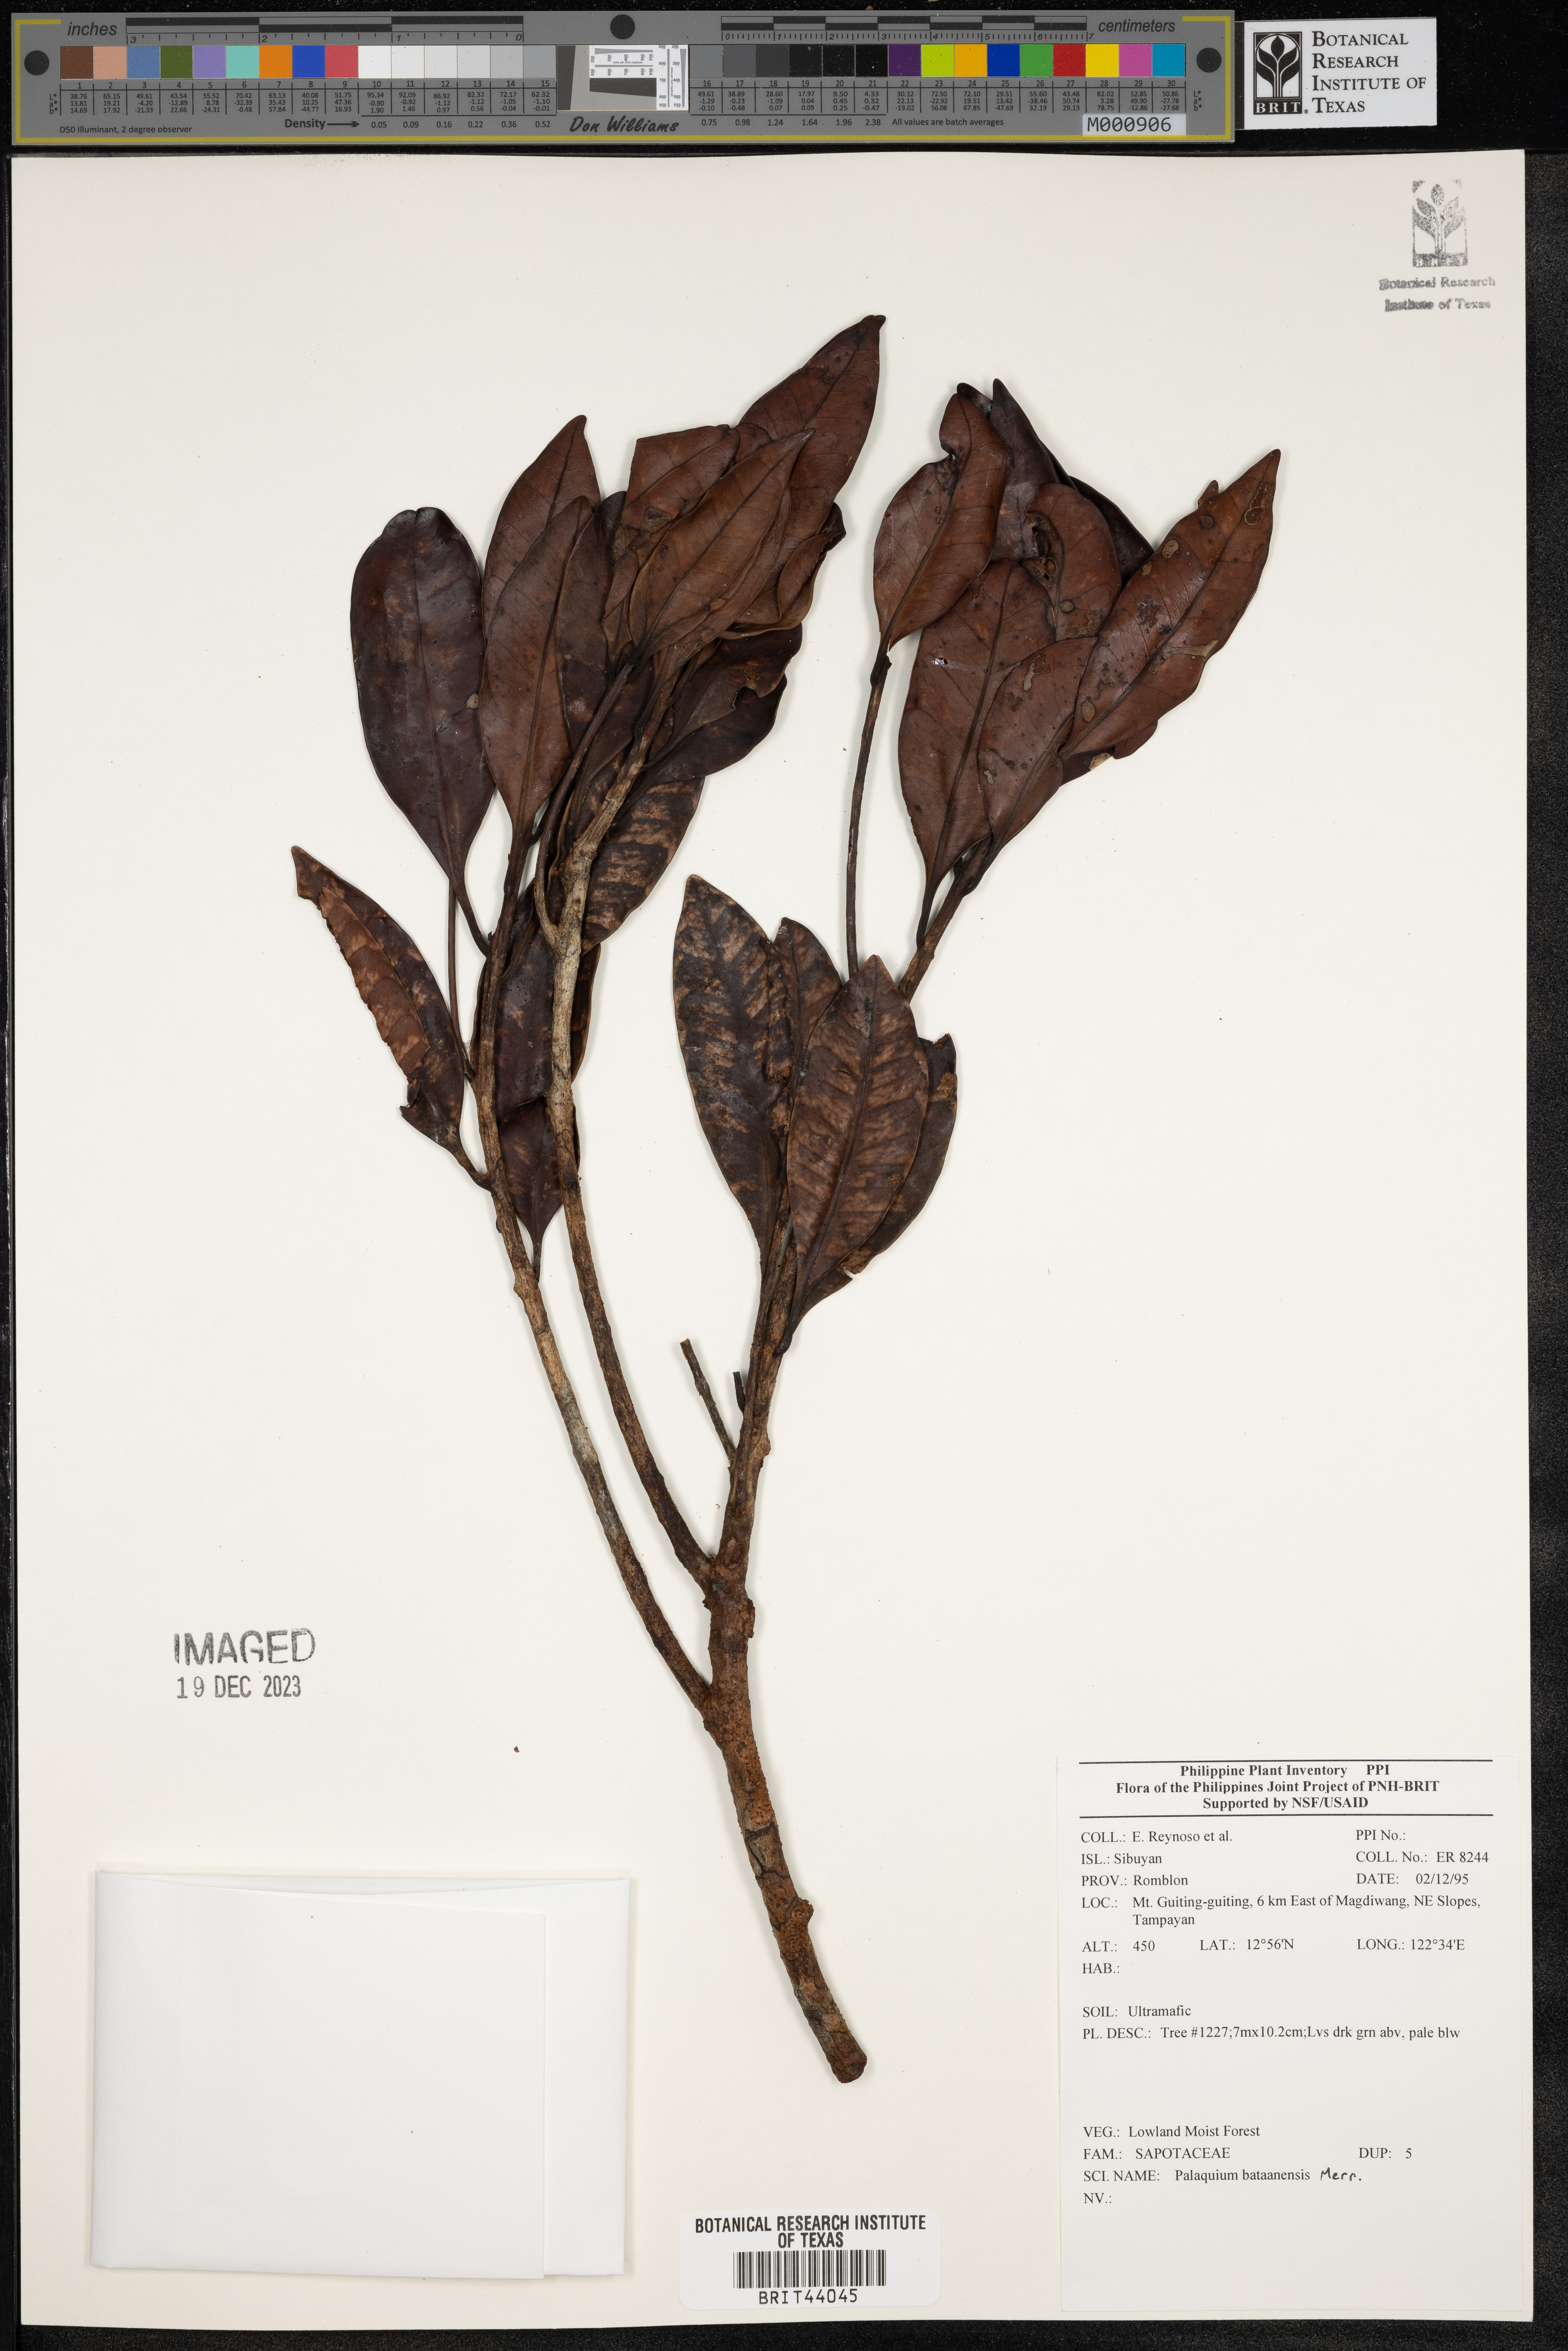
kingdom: Plantae
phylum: Tracheophyta
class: Magnoliopsida
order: Ericales
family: Sapotaceae
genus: Palaquium
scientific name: Palaquium bataanense
